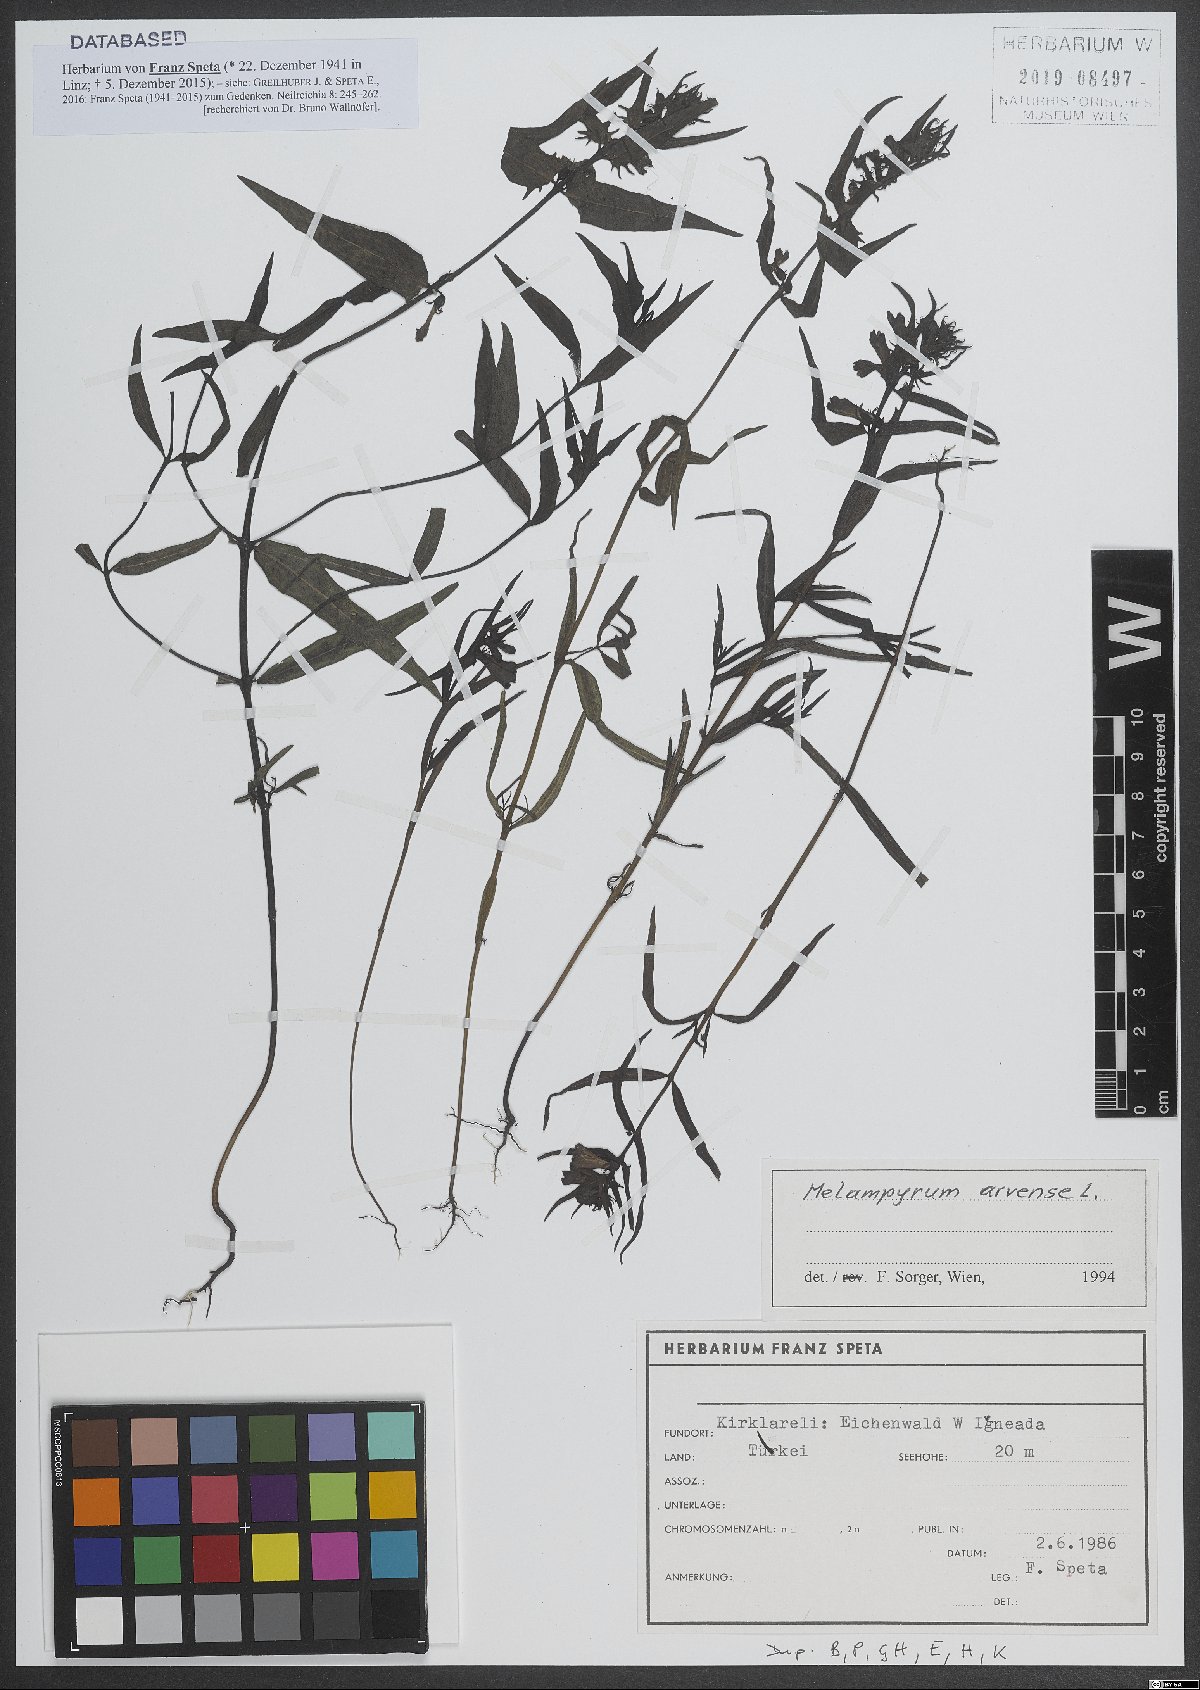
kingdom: Plantae
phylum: Tracheophyta
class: Magnoliopsida
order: Lamiales
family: Orobanchaceae
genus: Melampyrum
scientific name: Melampyrum arvense
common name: Field cow-wheat
